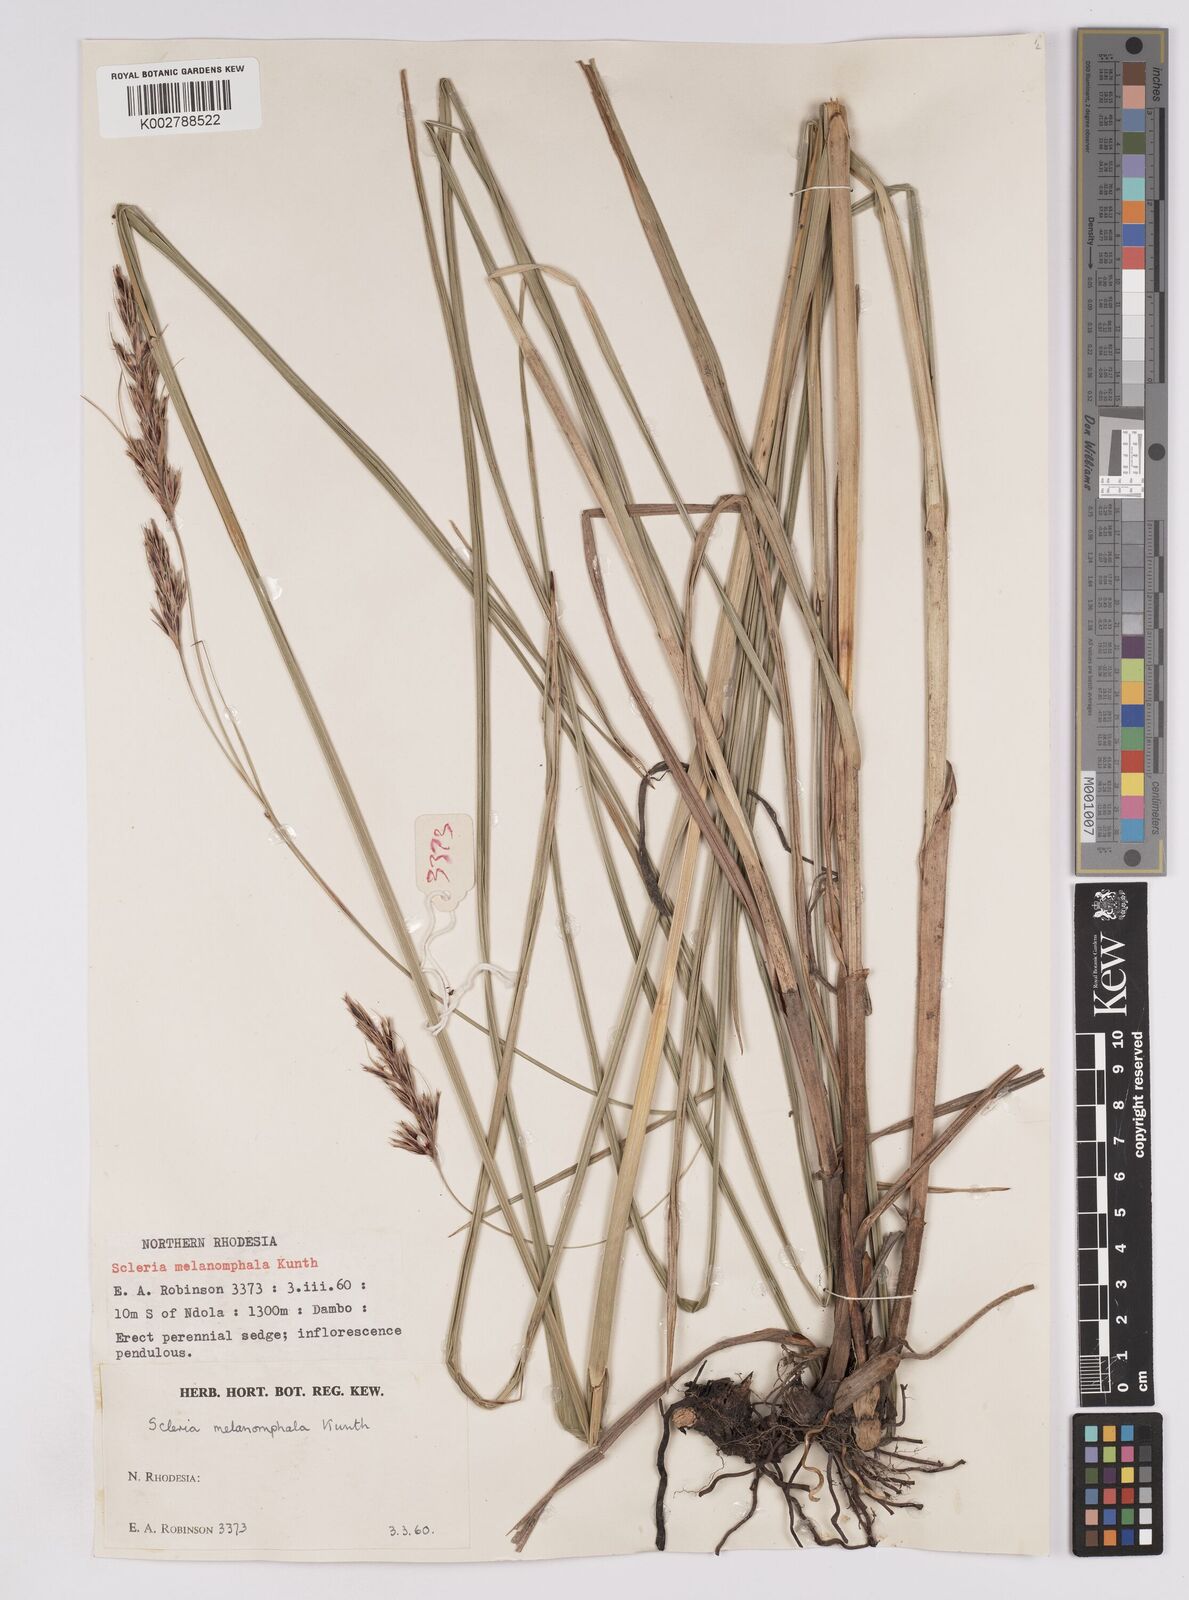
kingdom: Plantae
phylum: Tracheophyta
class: Liliopsida
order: Poales
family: Cyperaceae
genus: Scleria
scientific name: Scleria melanomphala
